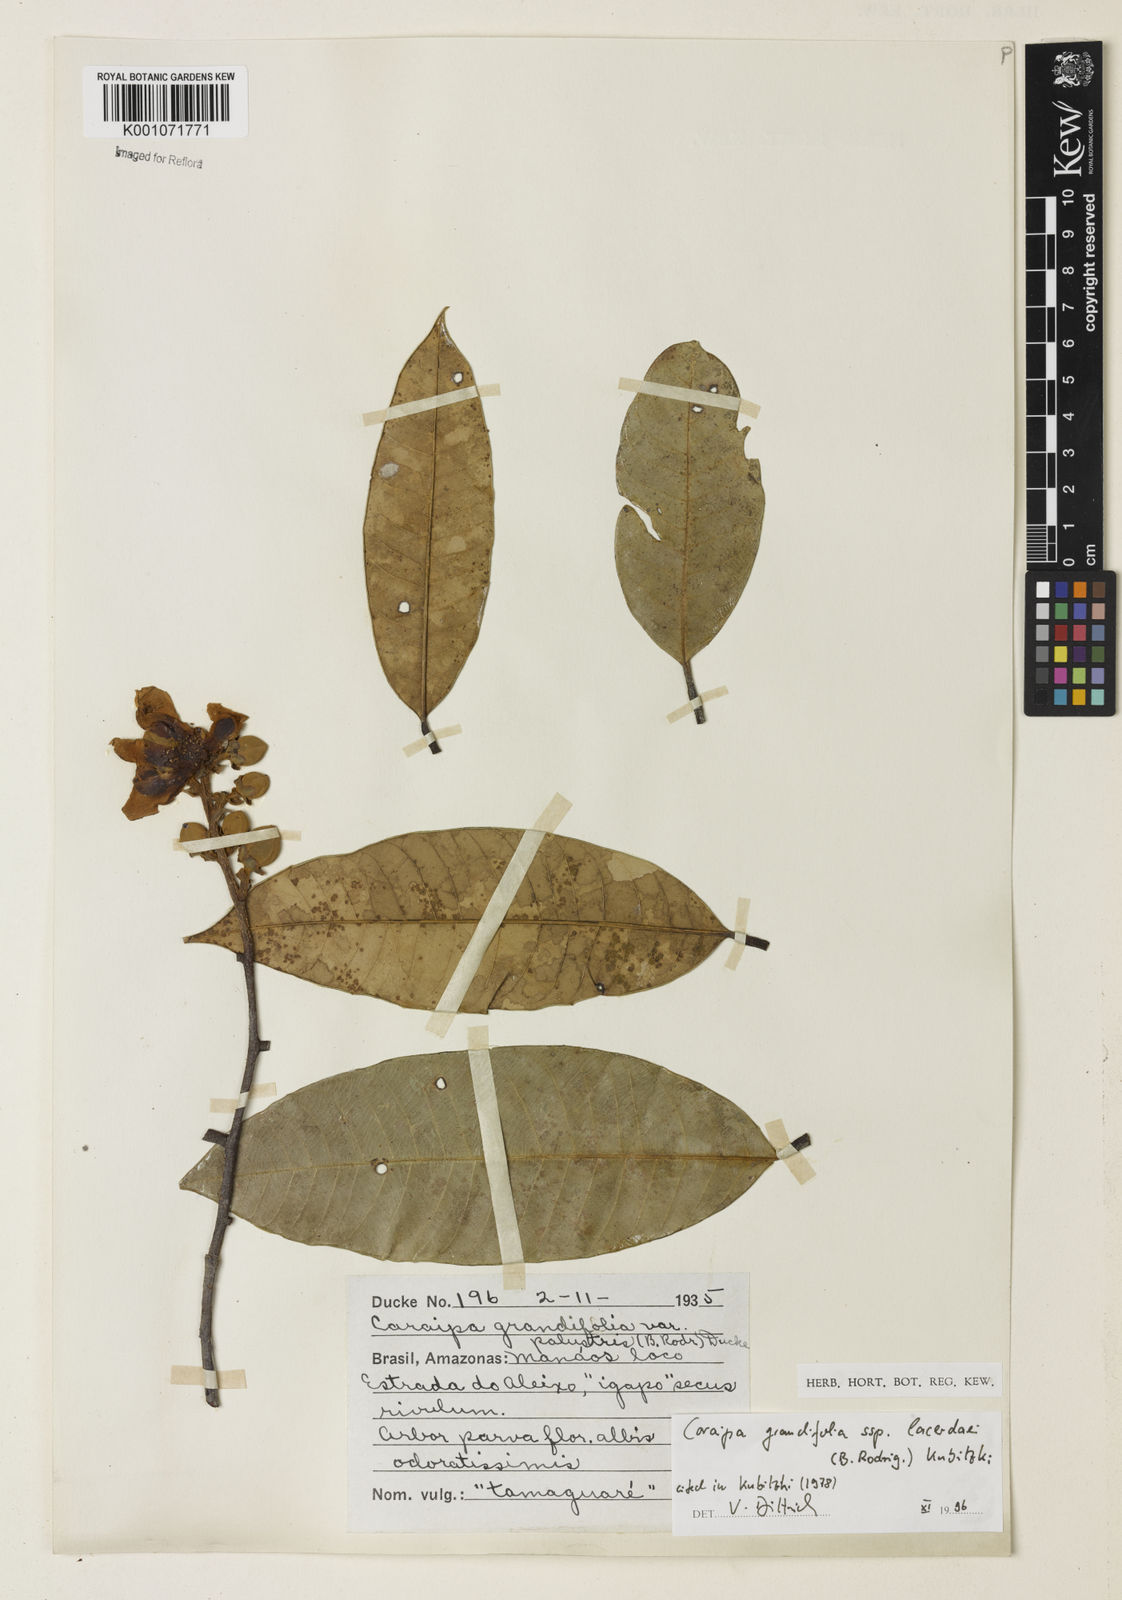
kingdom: Plantae
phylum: Tracheophyta
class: Magnoliopsida
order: Malpighiales
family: Calophyllaceae
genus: Caraipa
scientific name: Caraipa grandifolia
